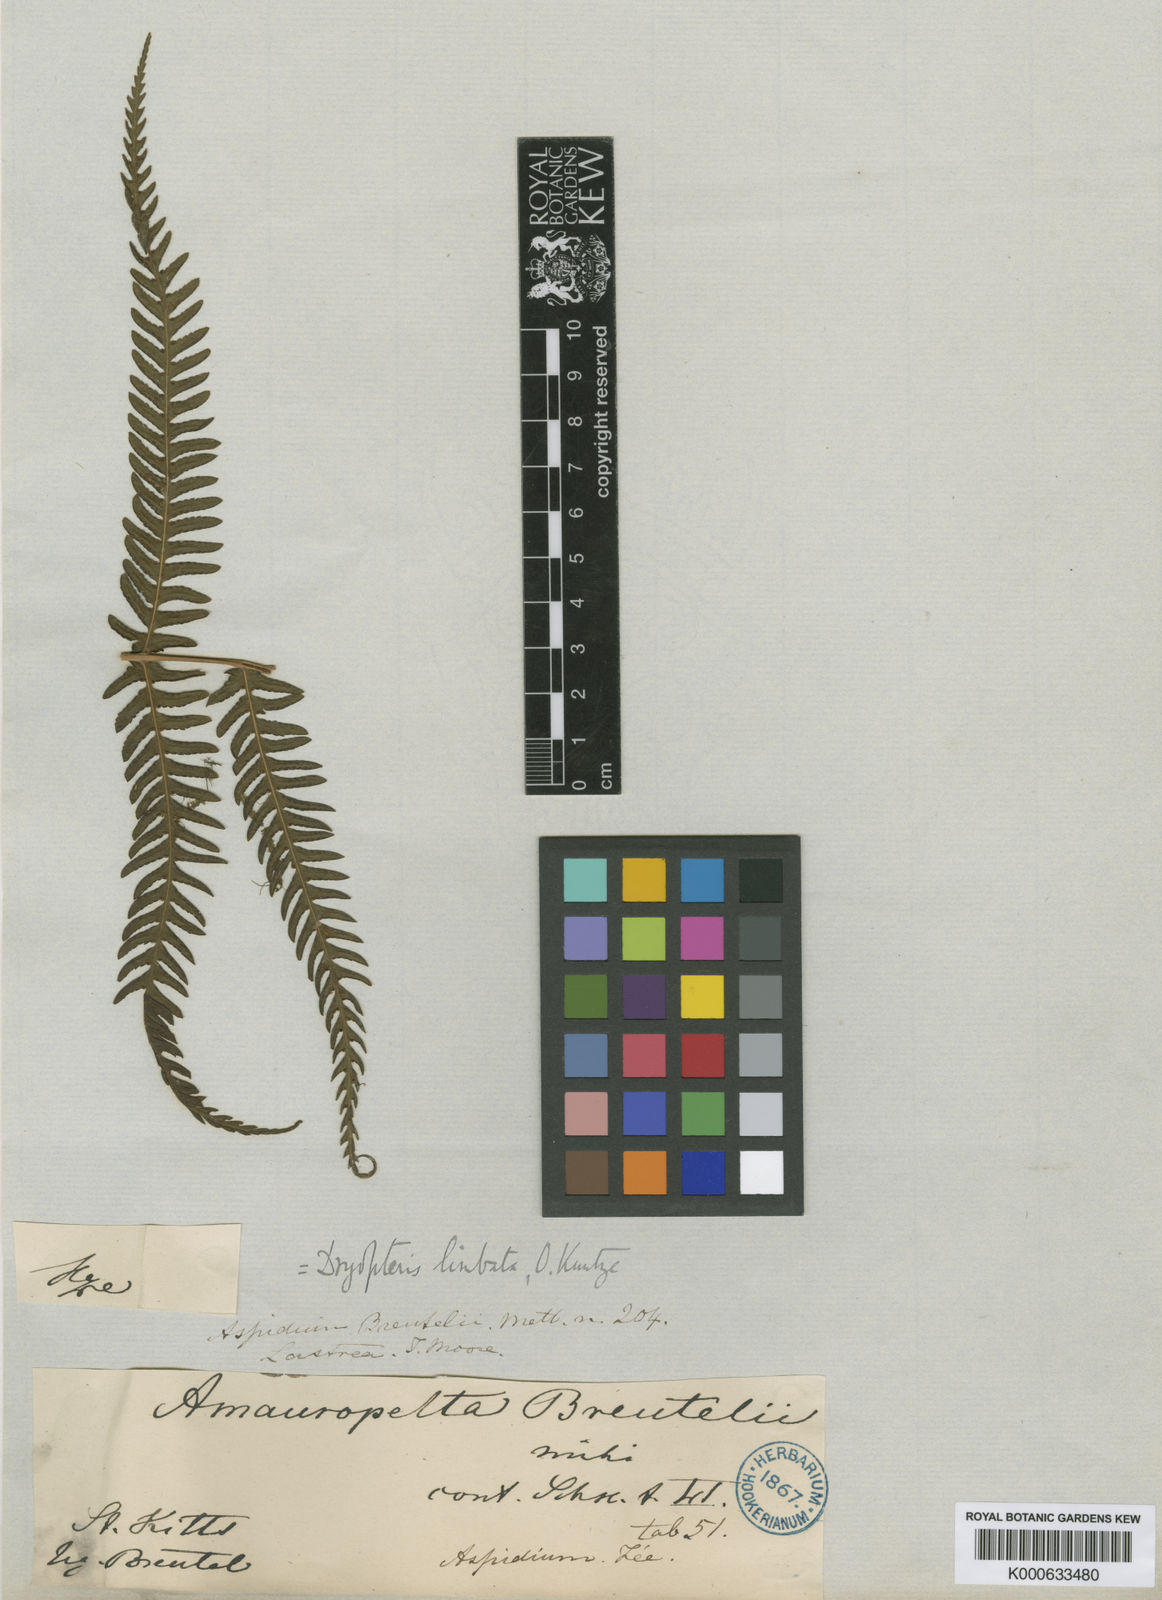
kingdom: Plantae
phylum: Tracheophyta
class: Polypodiopsida
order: Polypodiales
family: Thelypteridaceae
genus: Amauropelta
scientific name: Amauropelta limbata
